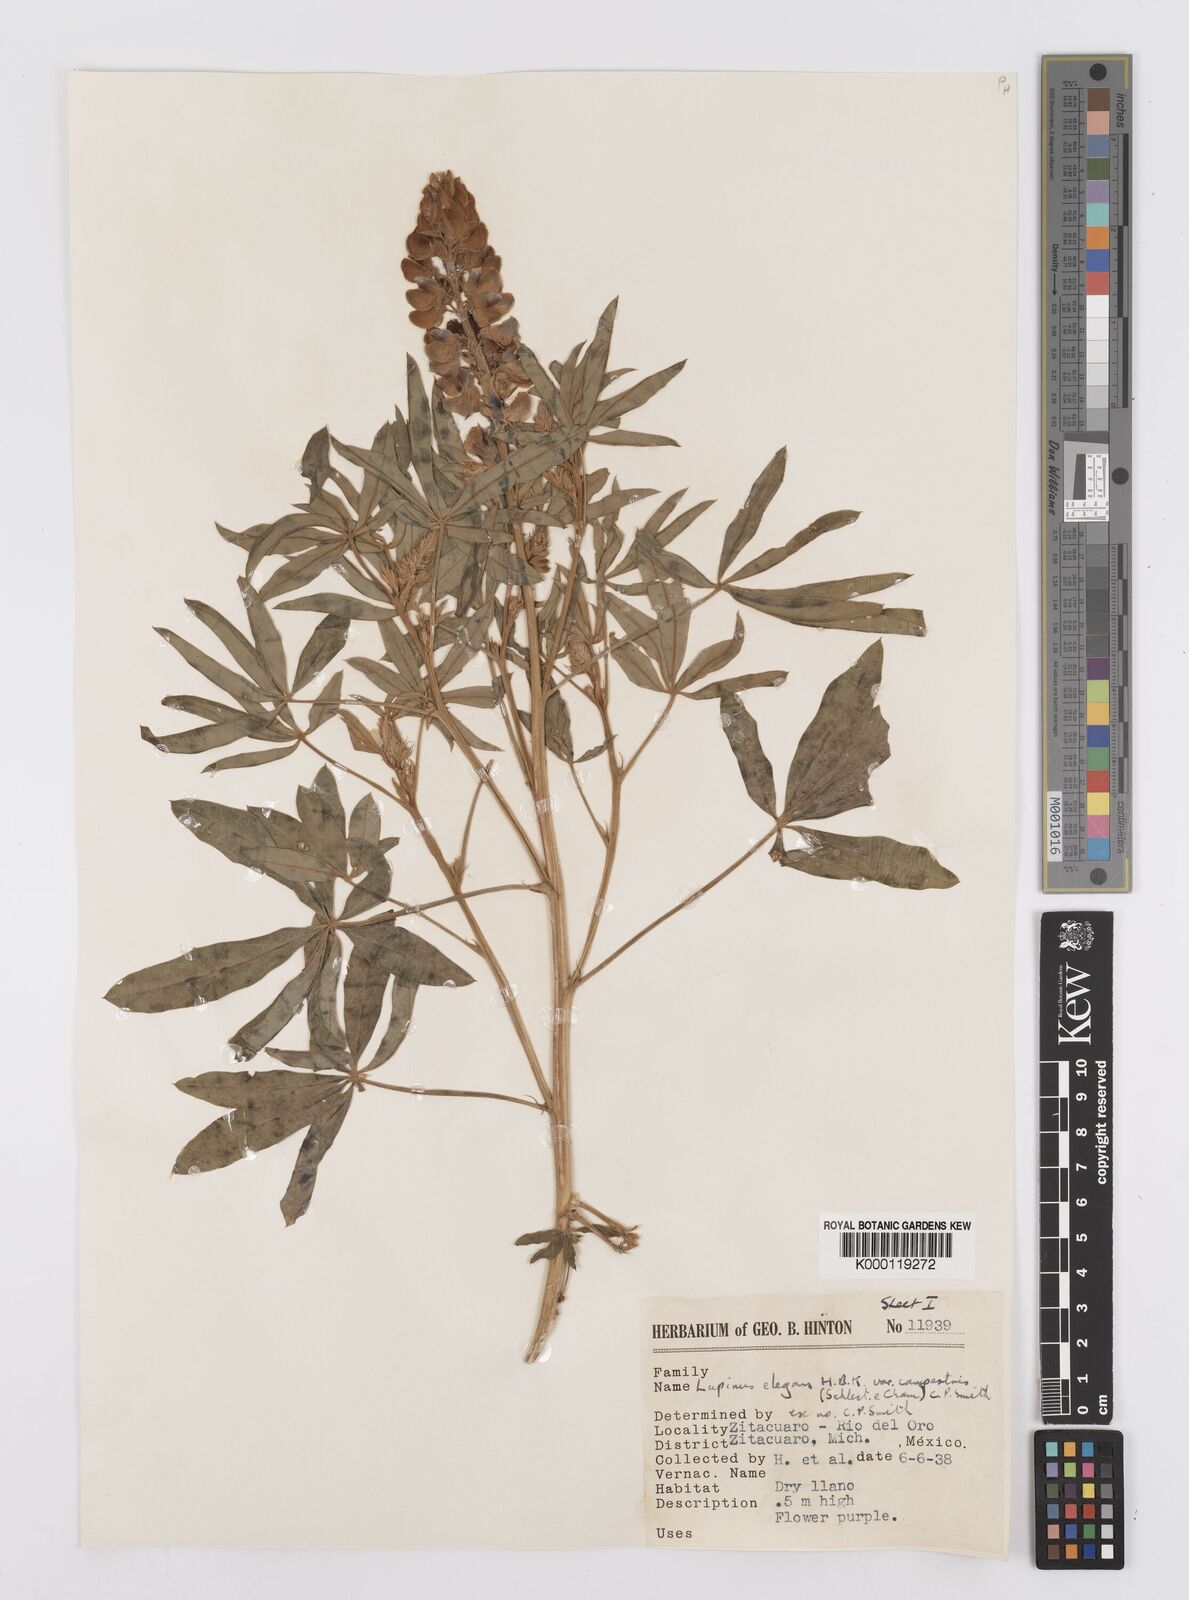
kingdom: Plantae
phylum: Tracheophyta
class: Magnoliopsida
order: Fabales
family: Fabaceae
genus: Lupinus
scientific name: Lupinus elegans
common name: Mexican lupine
